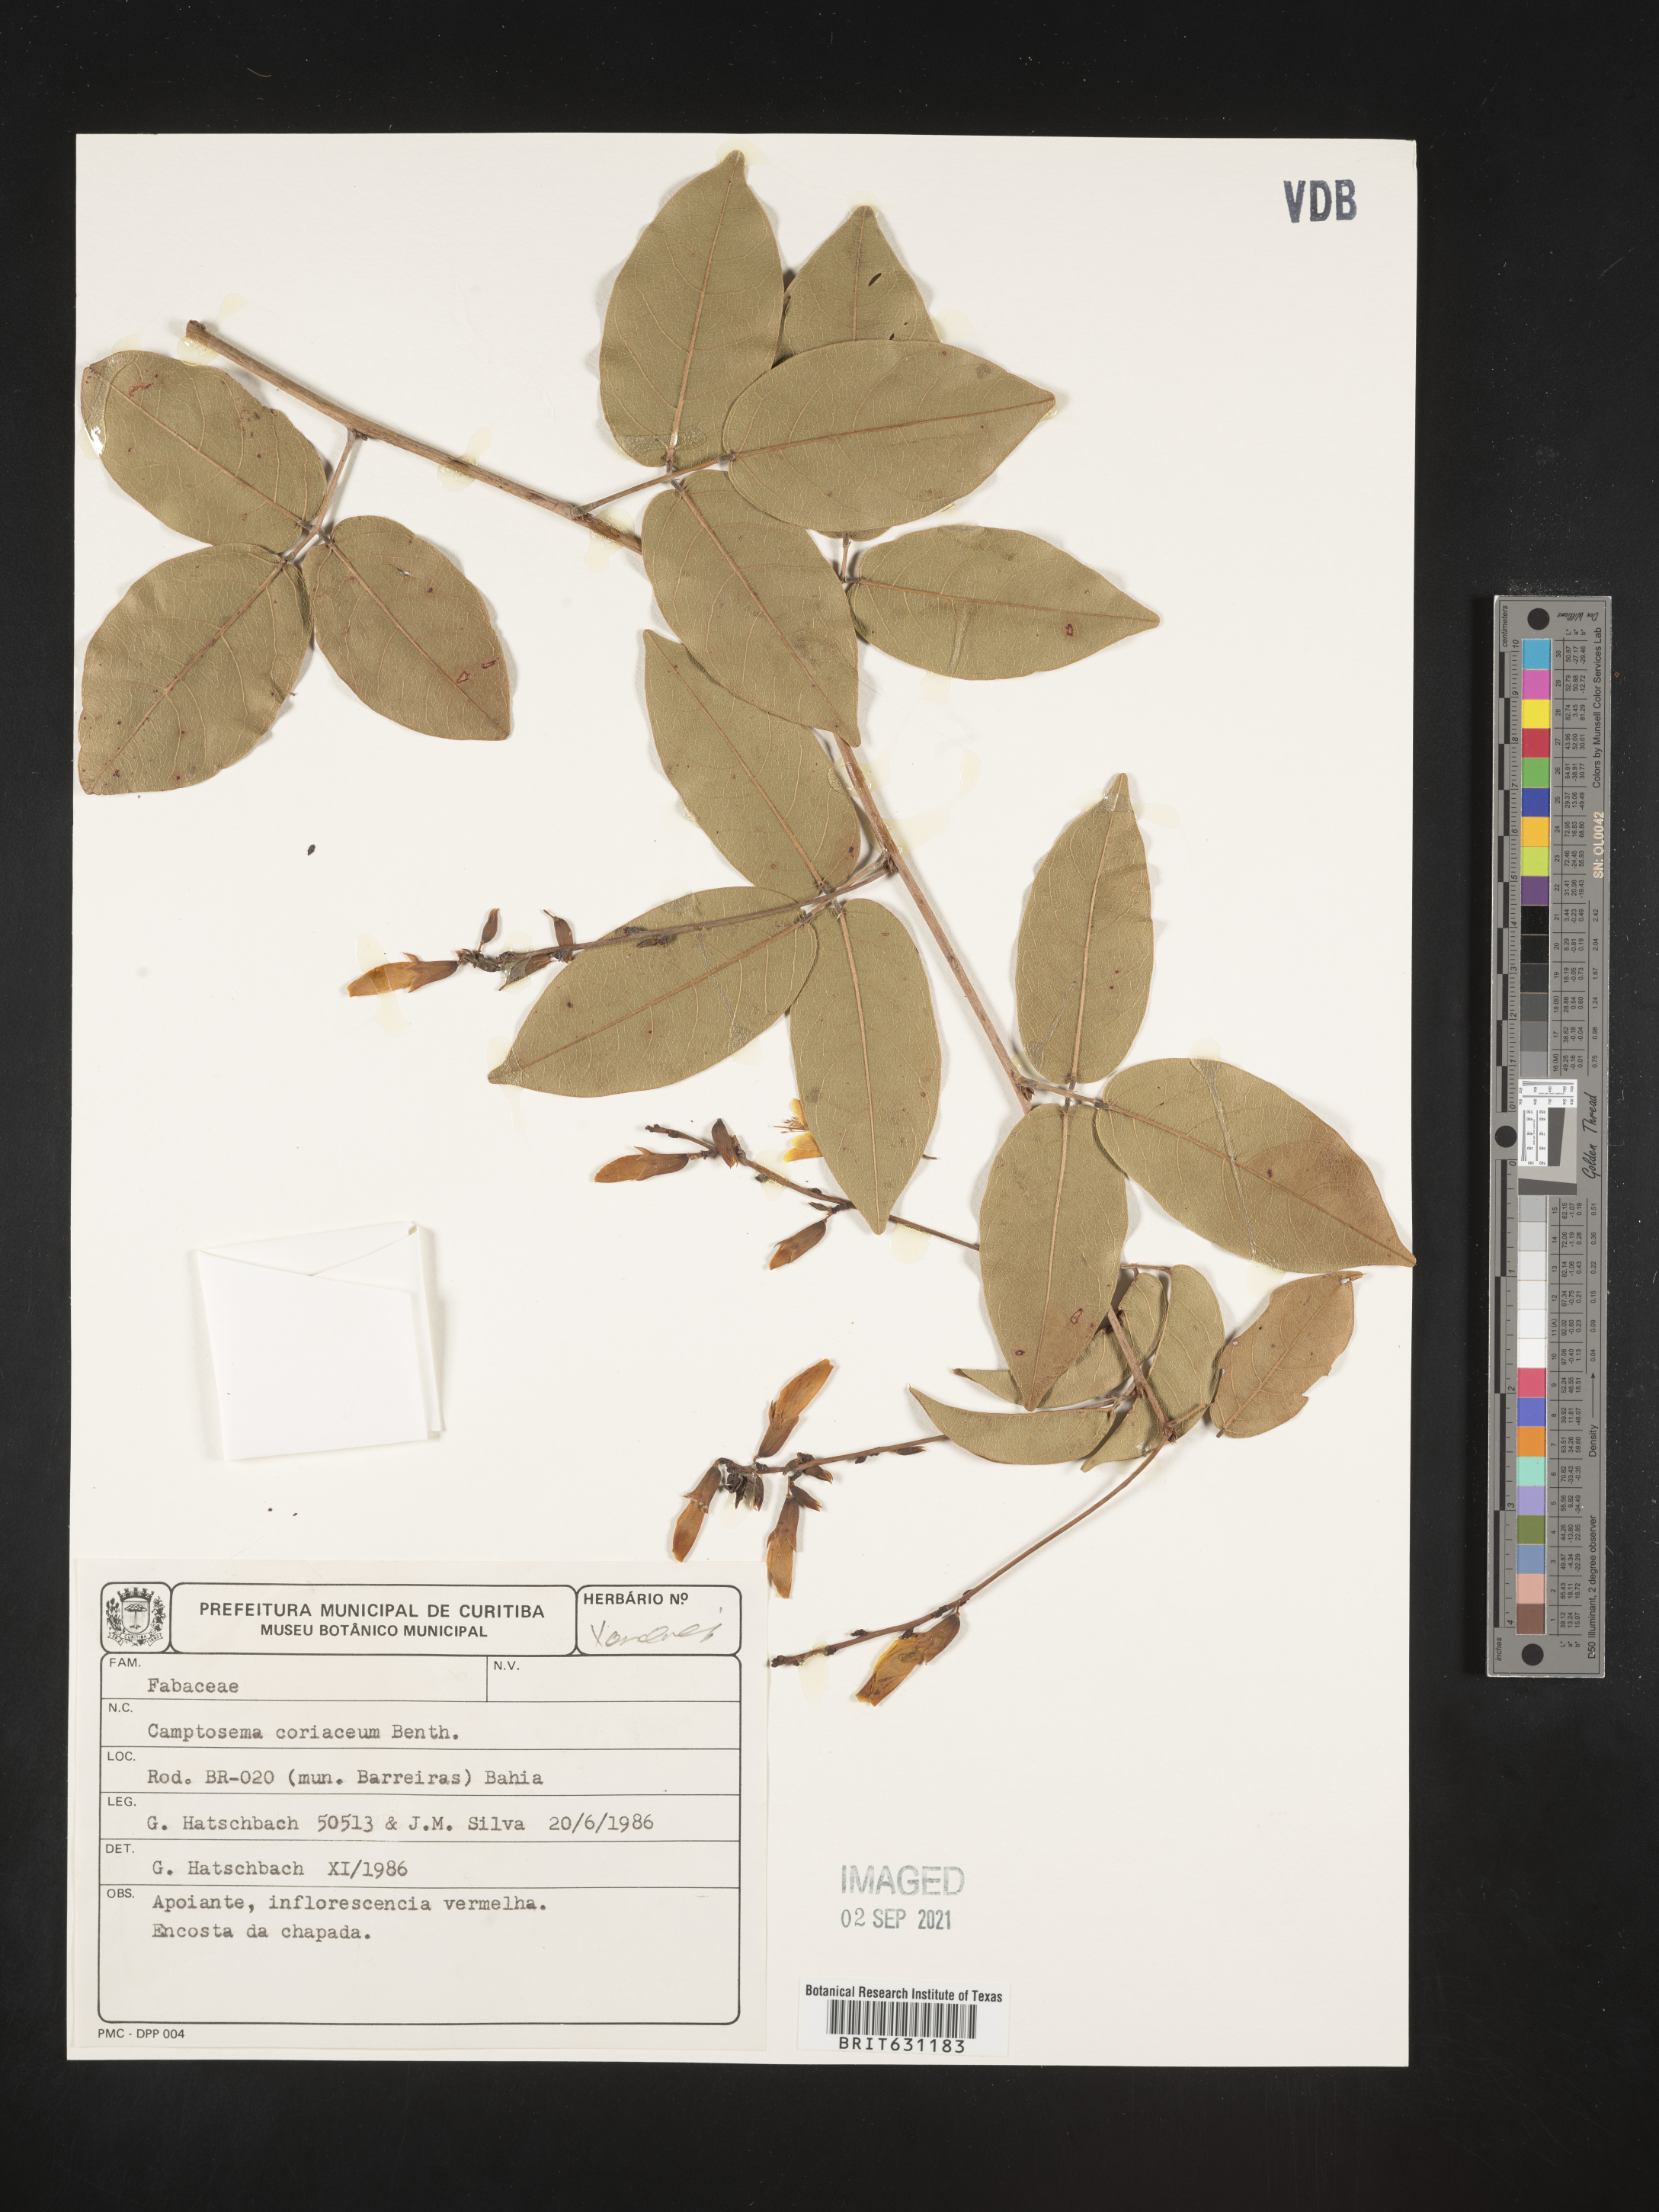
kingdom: Plantae
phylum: Tracheophyta
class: Magnoliopsida
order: Fabales
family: Fabaceae
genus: Camptosema
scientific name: Camptosema coriaceum
